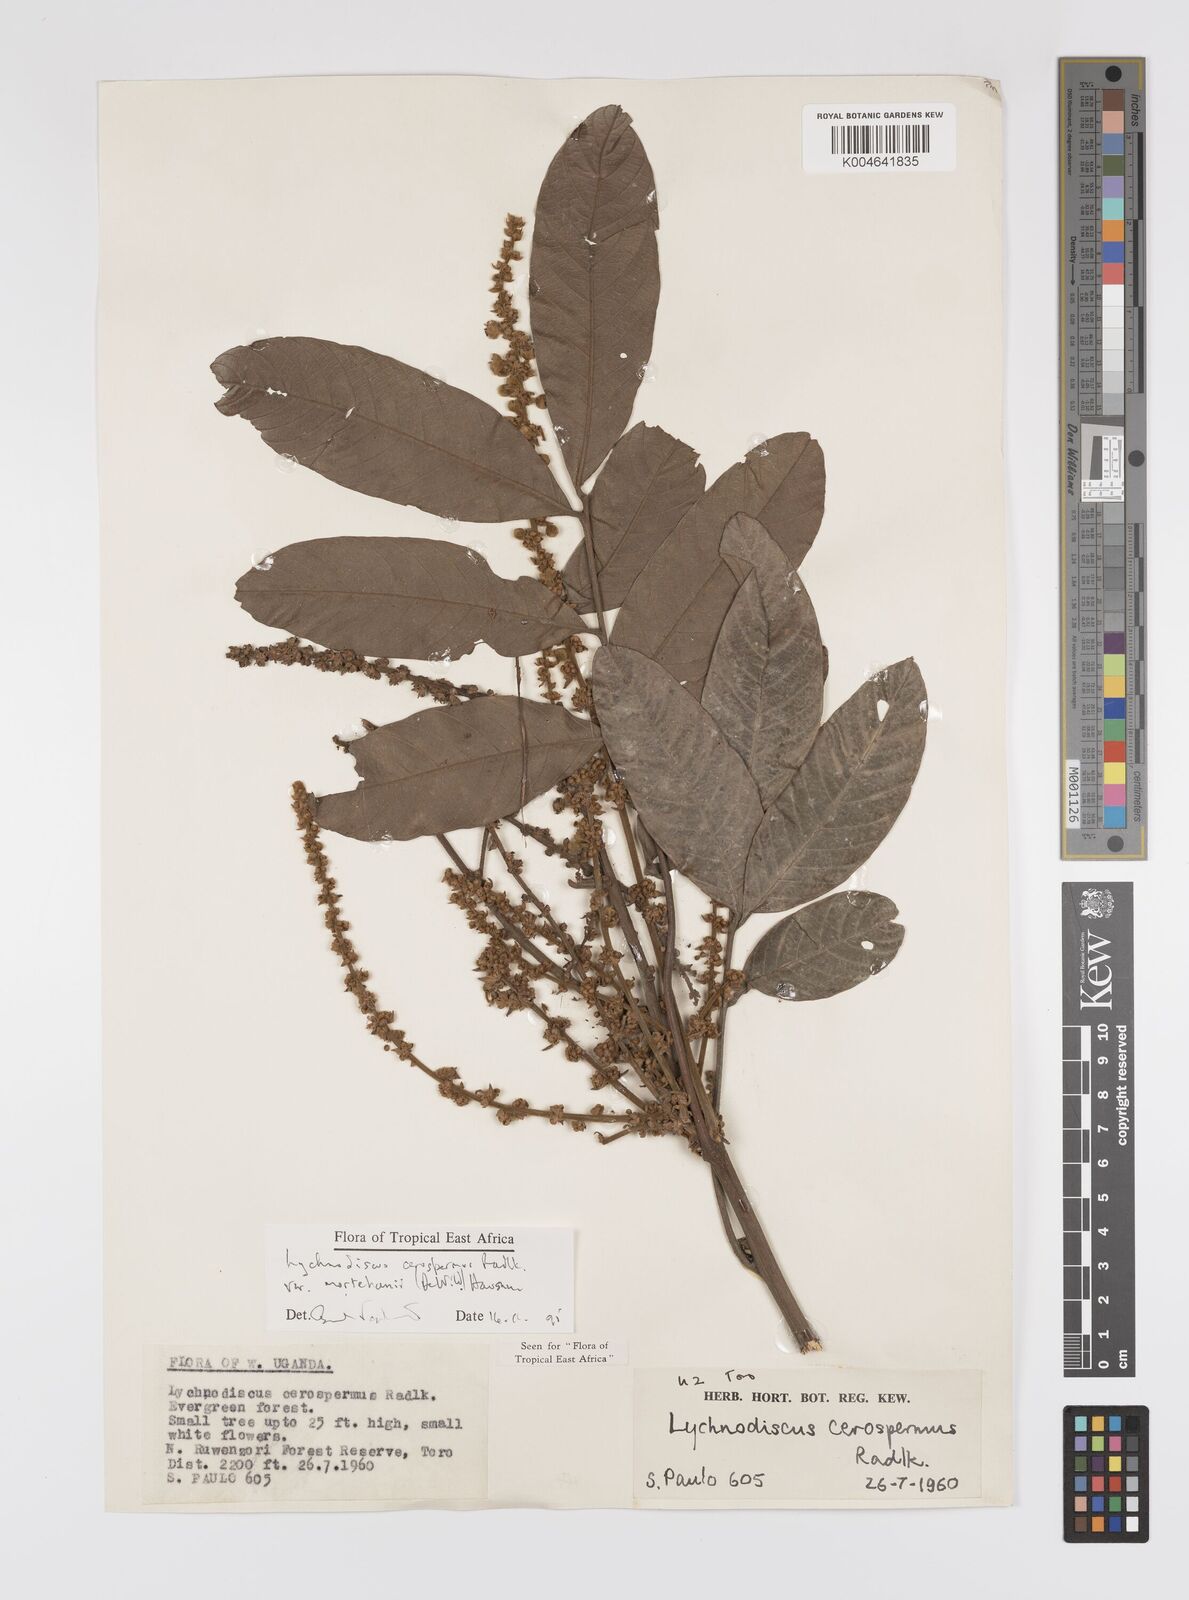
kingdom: Plantae
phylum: Tracheophyta
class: Magnoliopsida
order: Sapindales
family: Sapindaceae
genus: Lychnodiscus
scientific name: Lychnodiscus cerospermus
